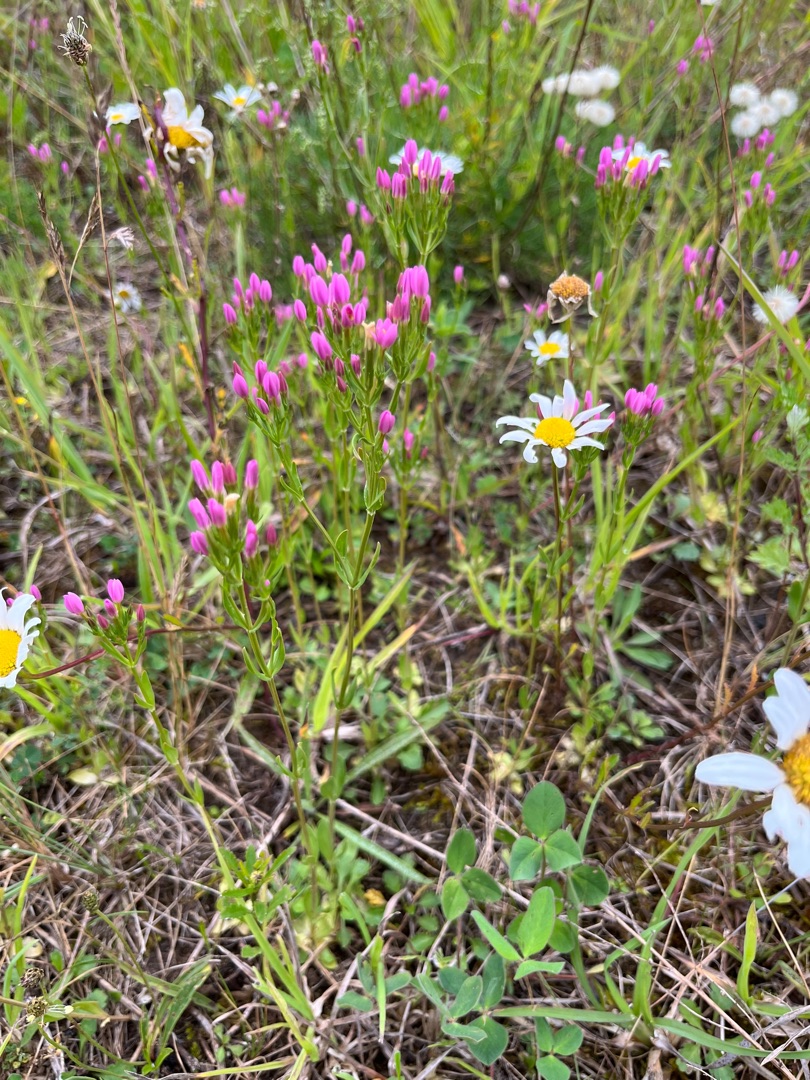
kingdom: Plantae
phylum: Tracheophyta
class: Magnoliopsida
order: Gentianales
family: Gentianaceae
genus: Centaurium
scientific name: Centaurium erythraea
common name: Mark-tusindgylden
